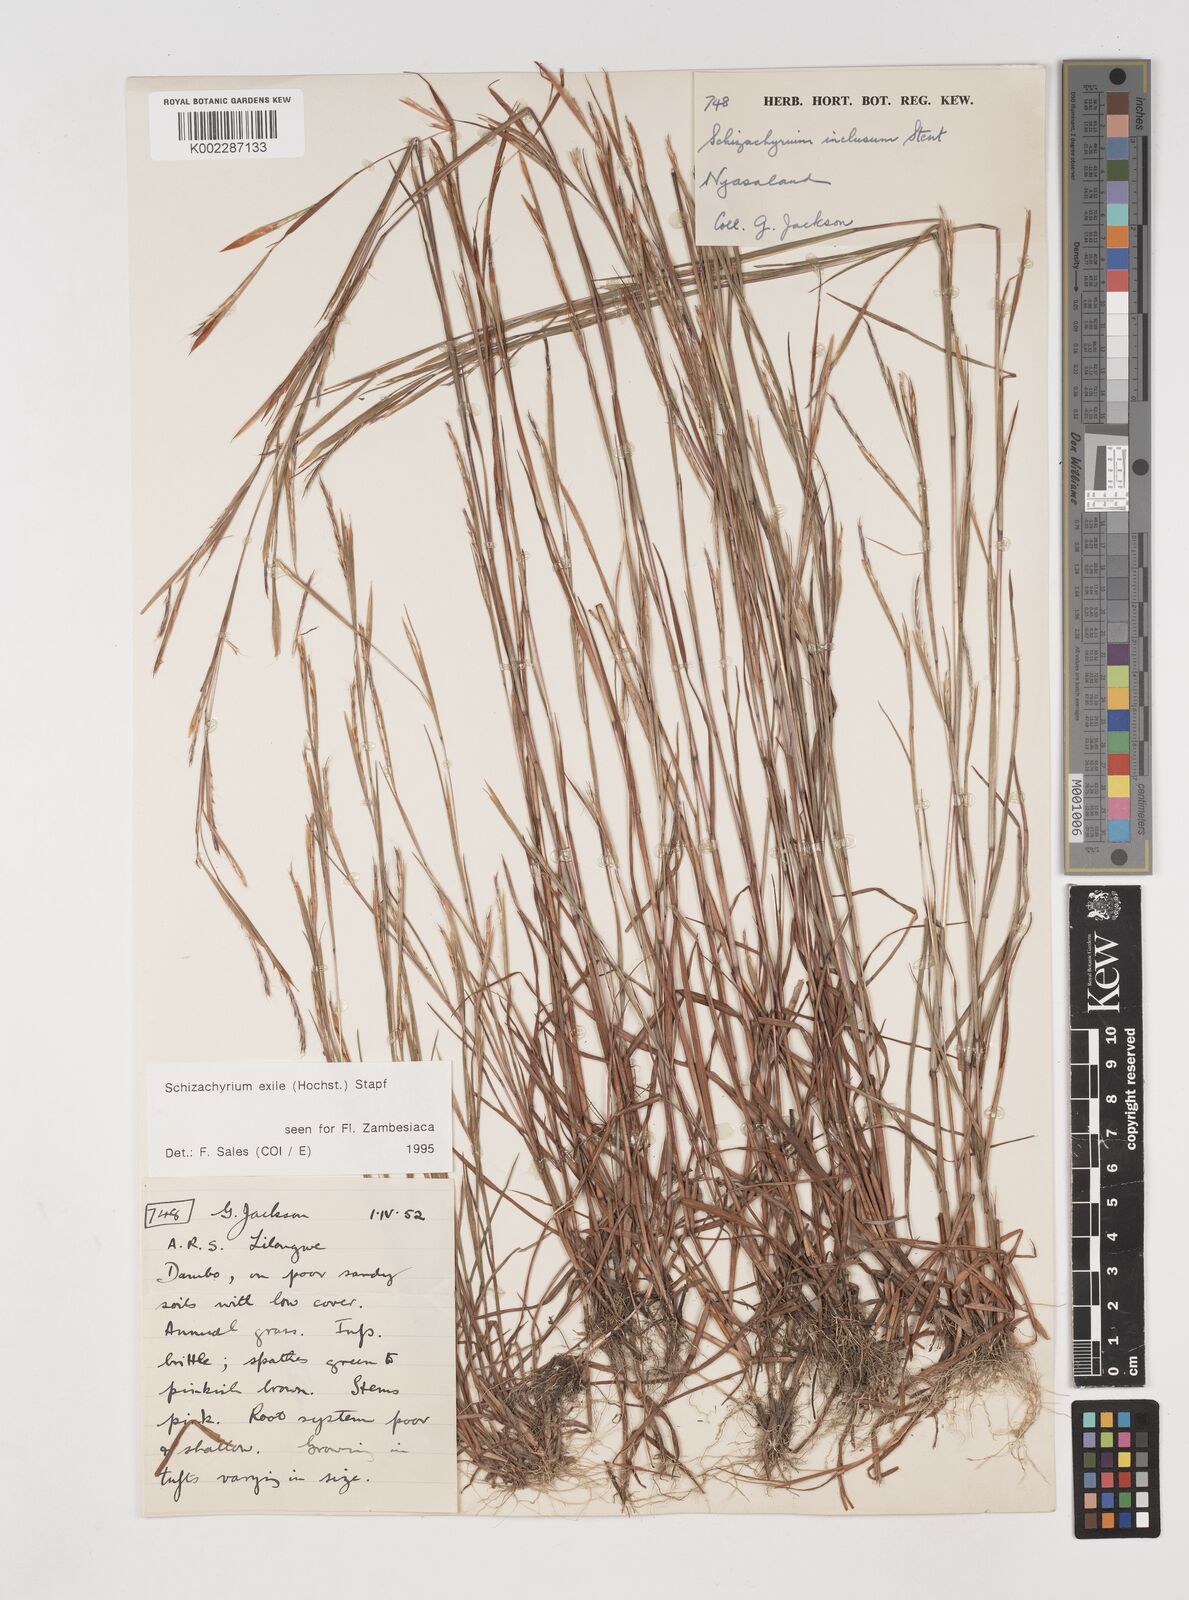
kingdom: Plantae
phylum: Tracheophyta
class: Liliopsida
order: Poales
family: Poaceae
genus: Schizachyrium
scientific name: Schizachyrium exile
